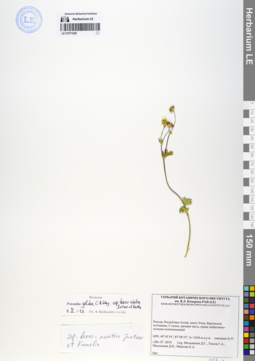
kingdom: Plantae
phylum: Tracheophyta
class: Magnoliopsida
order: Rosales
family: Rosaceae
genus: Potentilla
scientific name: Potentilla crantzii
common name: Alpine cinquefoil
